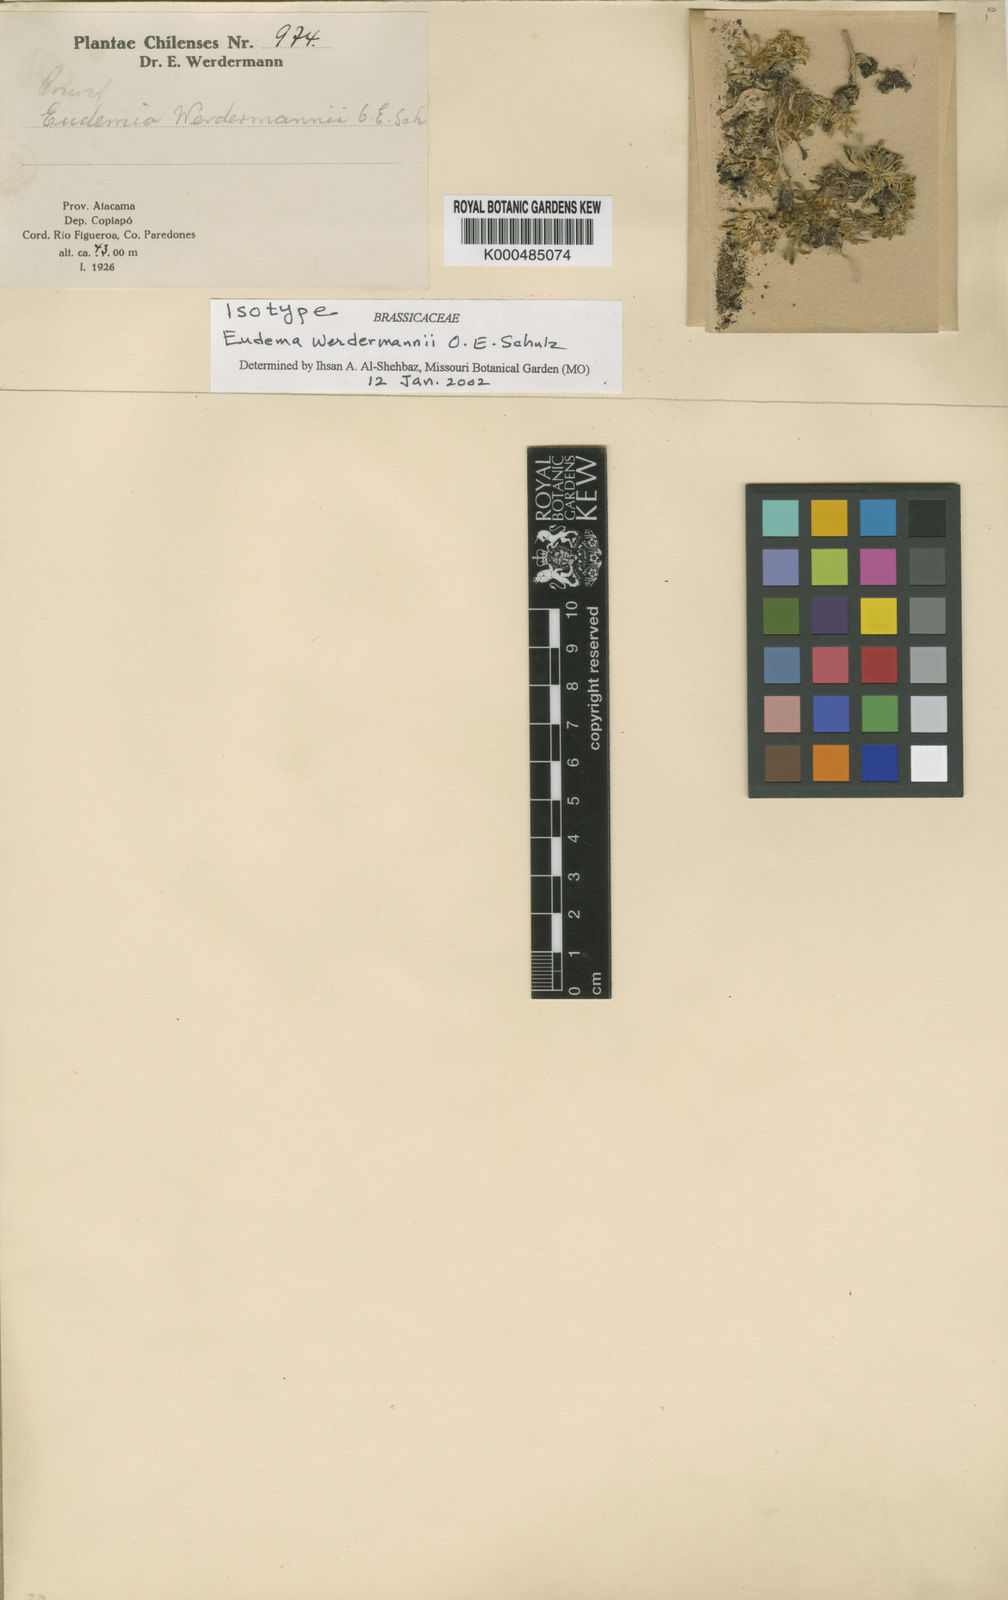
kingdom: Plantae
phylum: Tracheophyta
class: Magnoliopsida
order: Brassicales
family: Brassicaceae
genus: Petroravenia
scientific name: Petroravenia werdermannii
